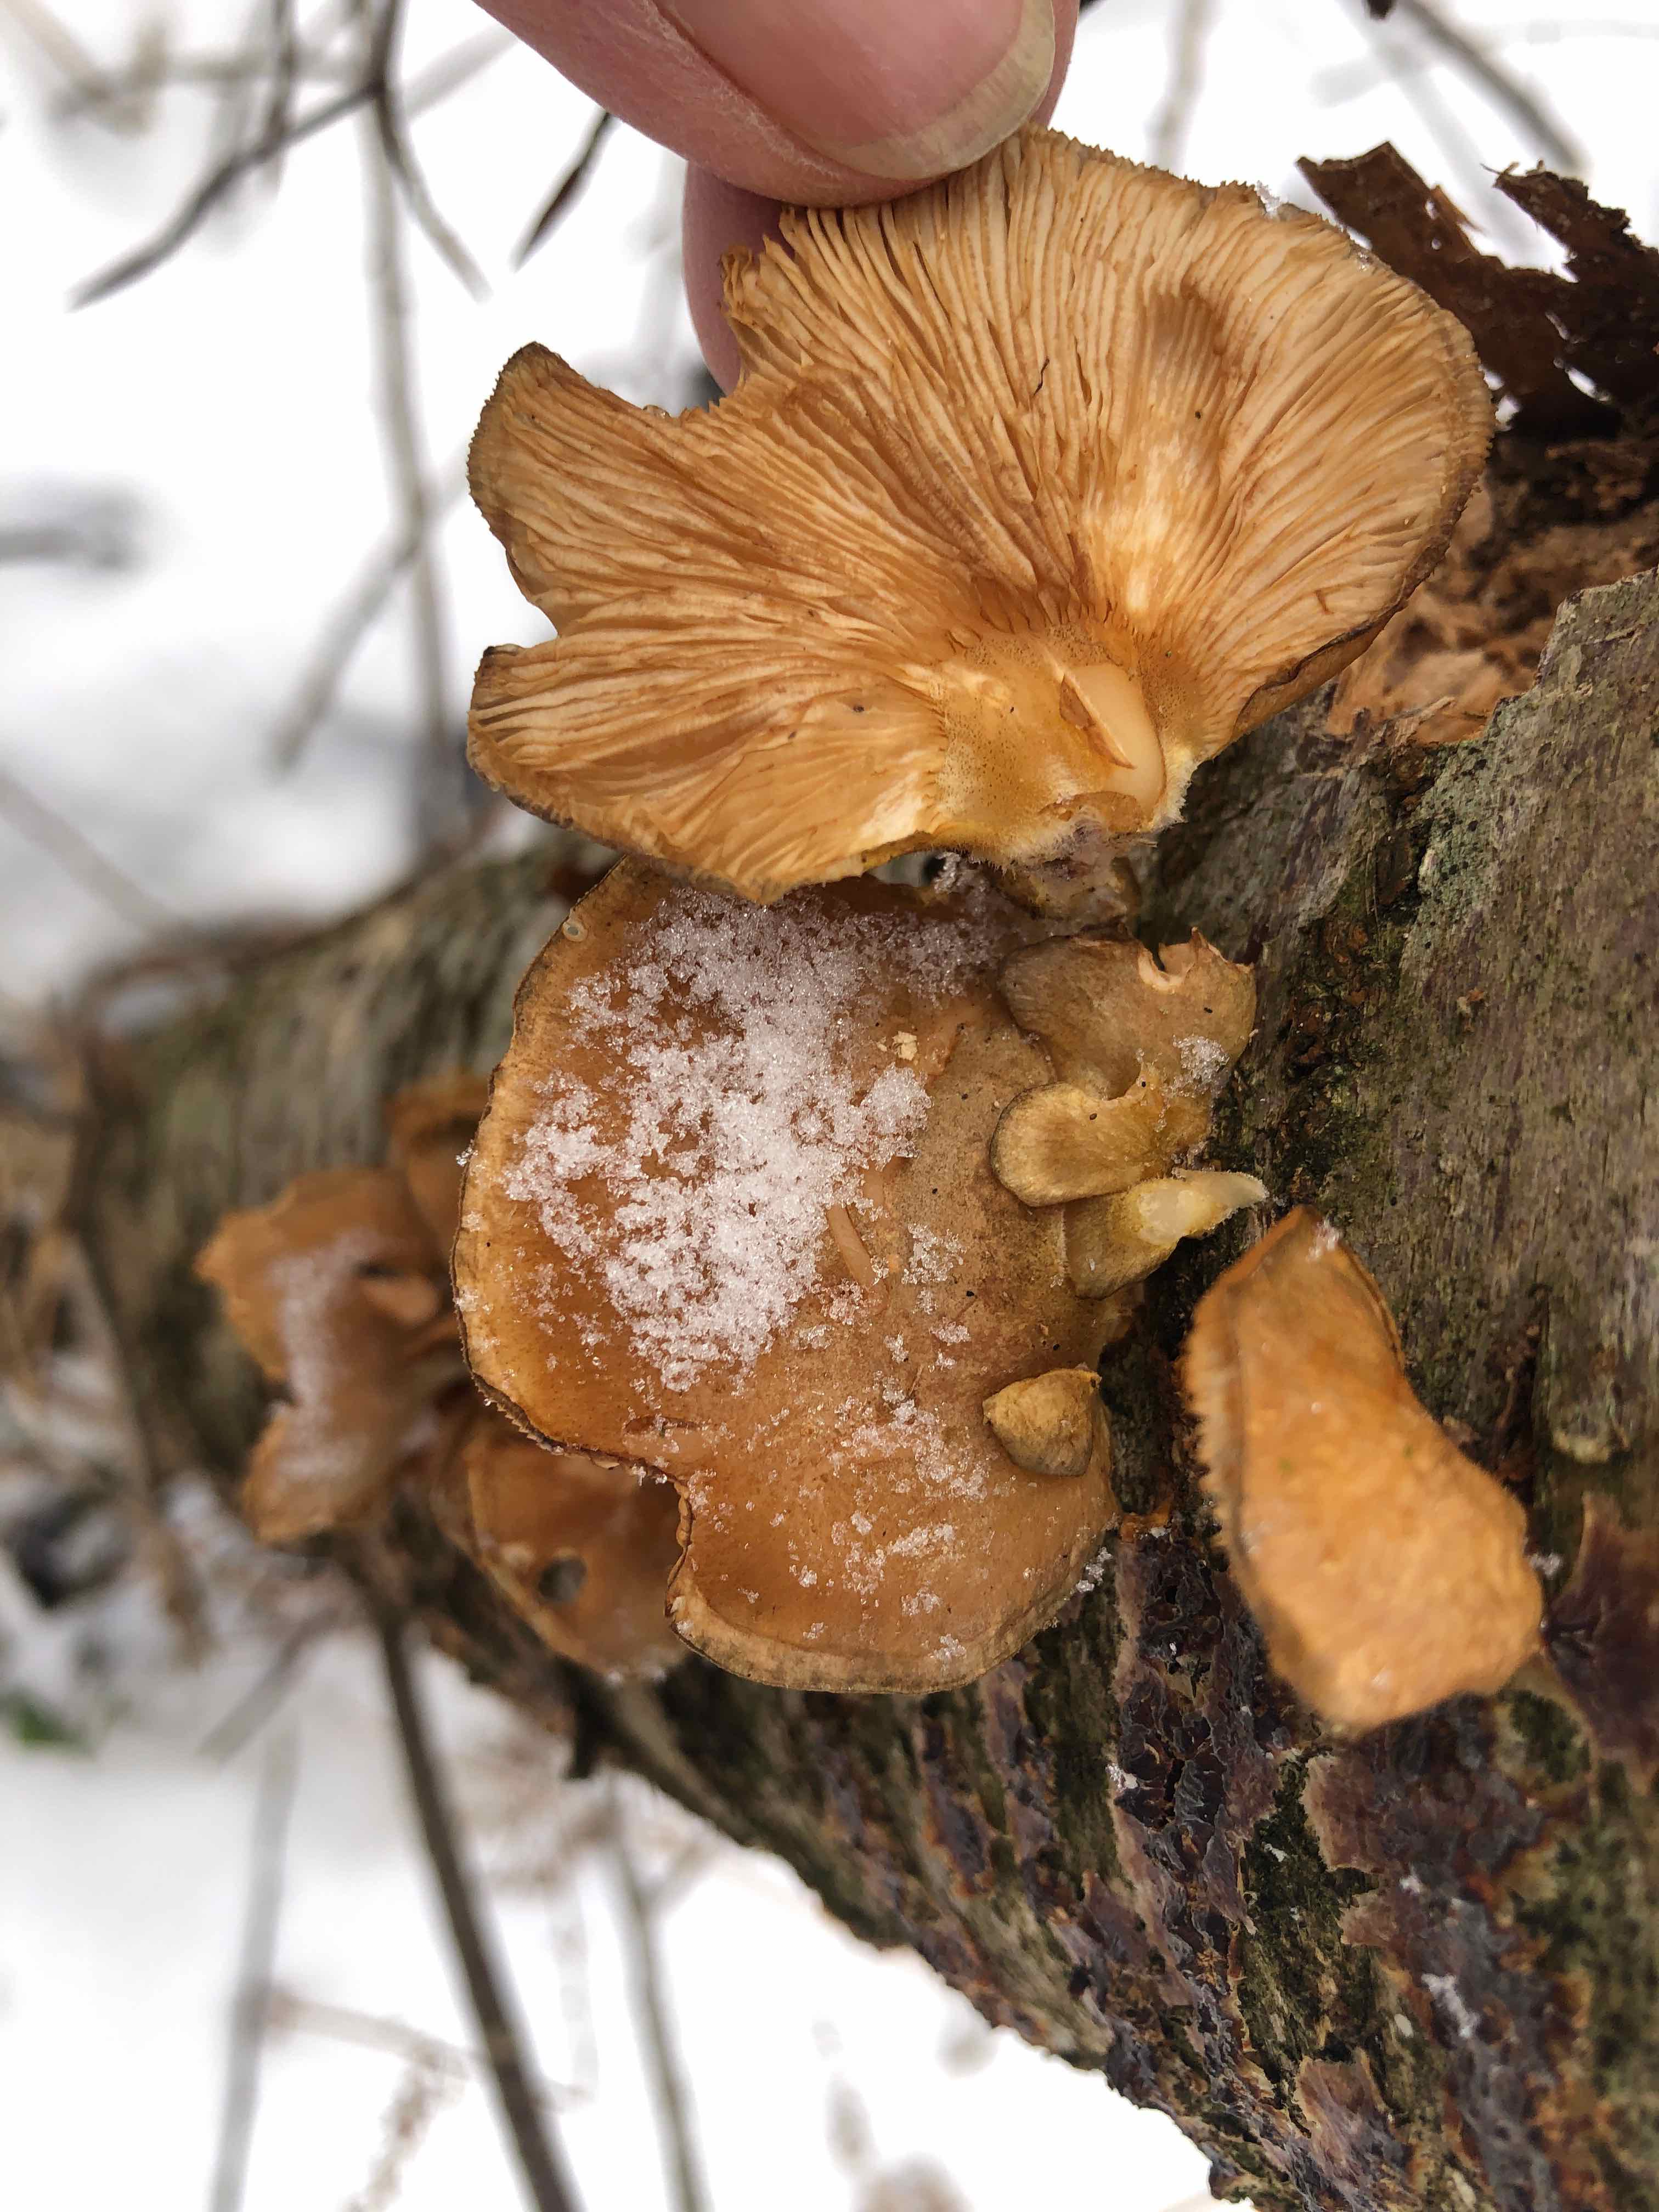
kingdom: Fungi
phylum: Basidiomycota
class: Agaricomycetes
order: Agaricales
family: Sarcomyxaceae
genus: Sarcomyxa
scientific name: Sarcomyxa serotina
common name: gummihat
